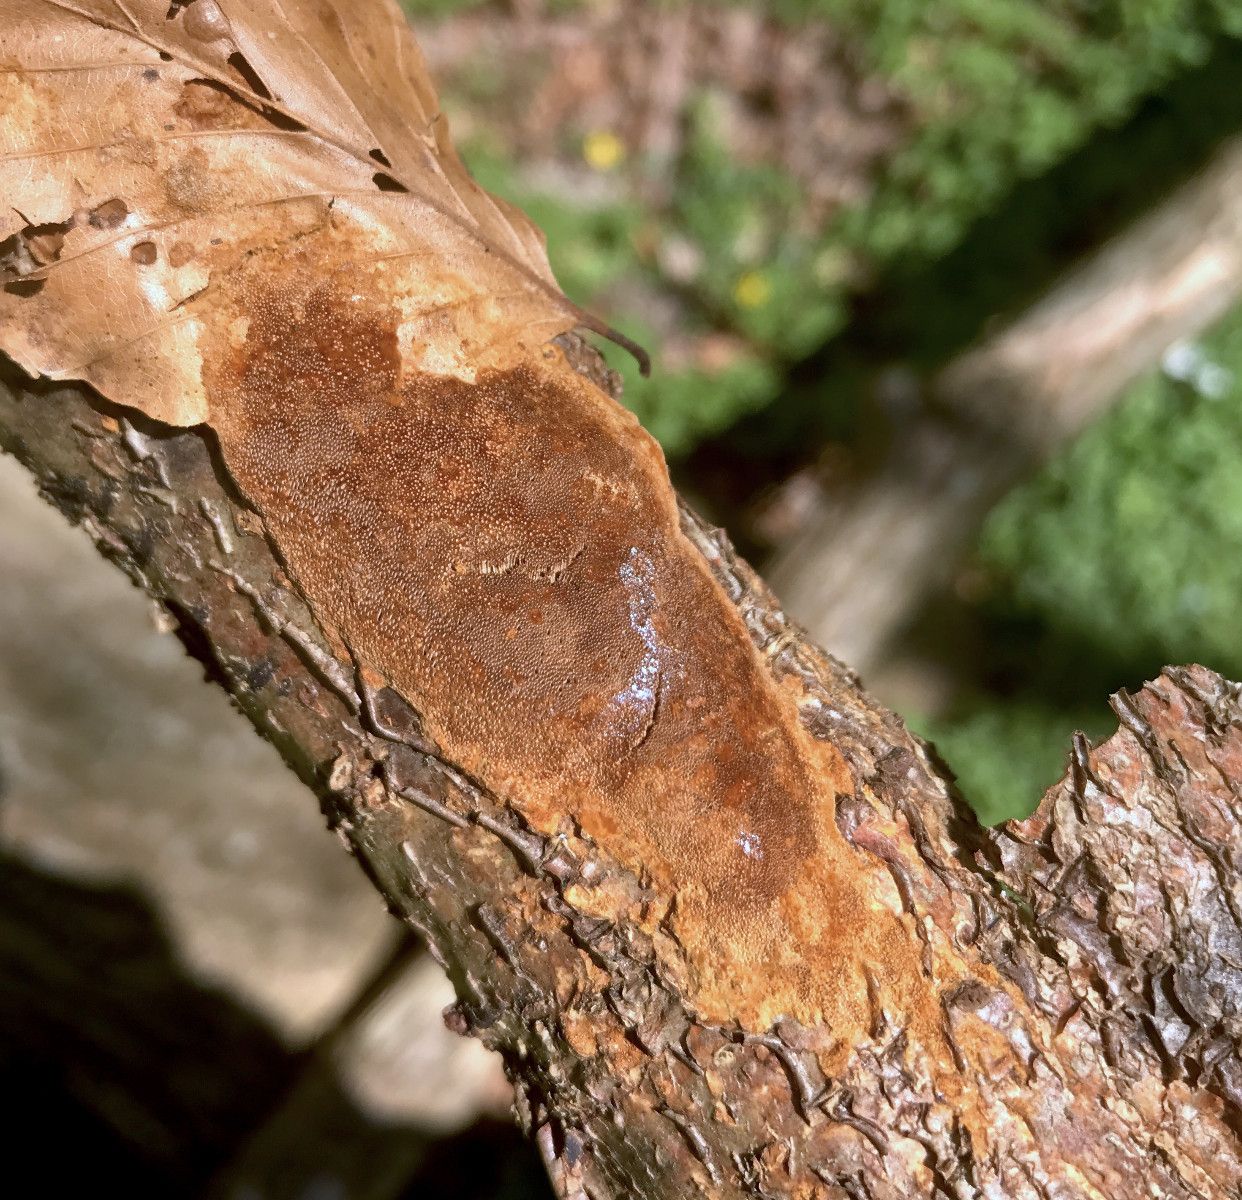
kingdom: Fungi
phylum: Basidiomycota
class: Agaricomycetes
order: Hymenochaetales
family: Hymenochaetaceae
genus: Fuscoporia
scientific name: Fuscoporia ferrea
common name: skorpe-ildporesvamp
